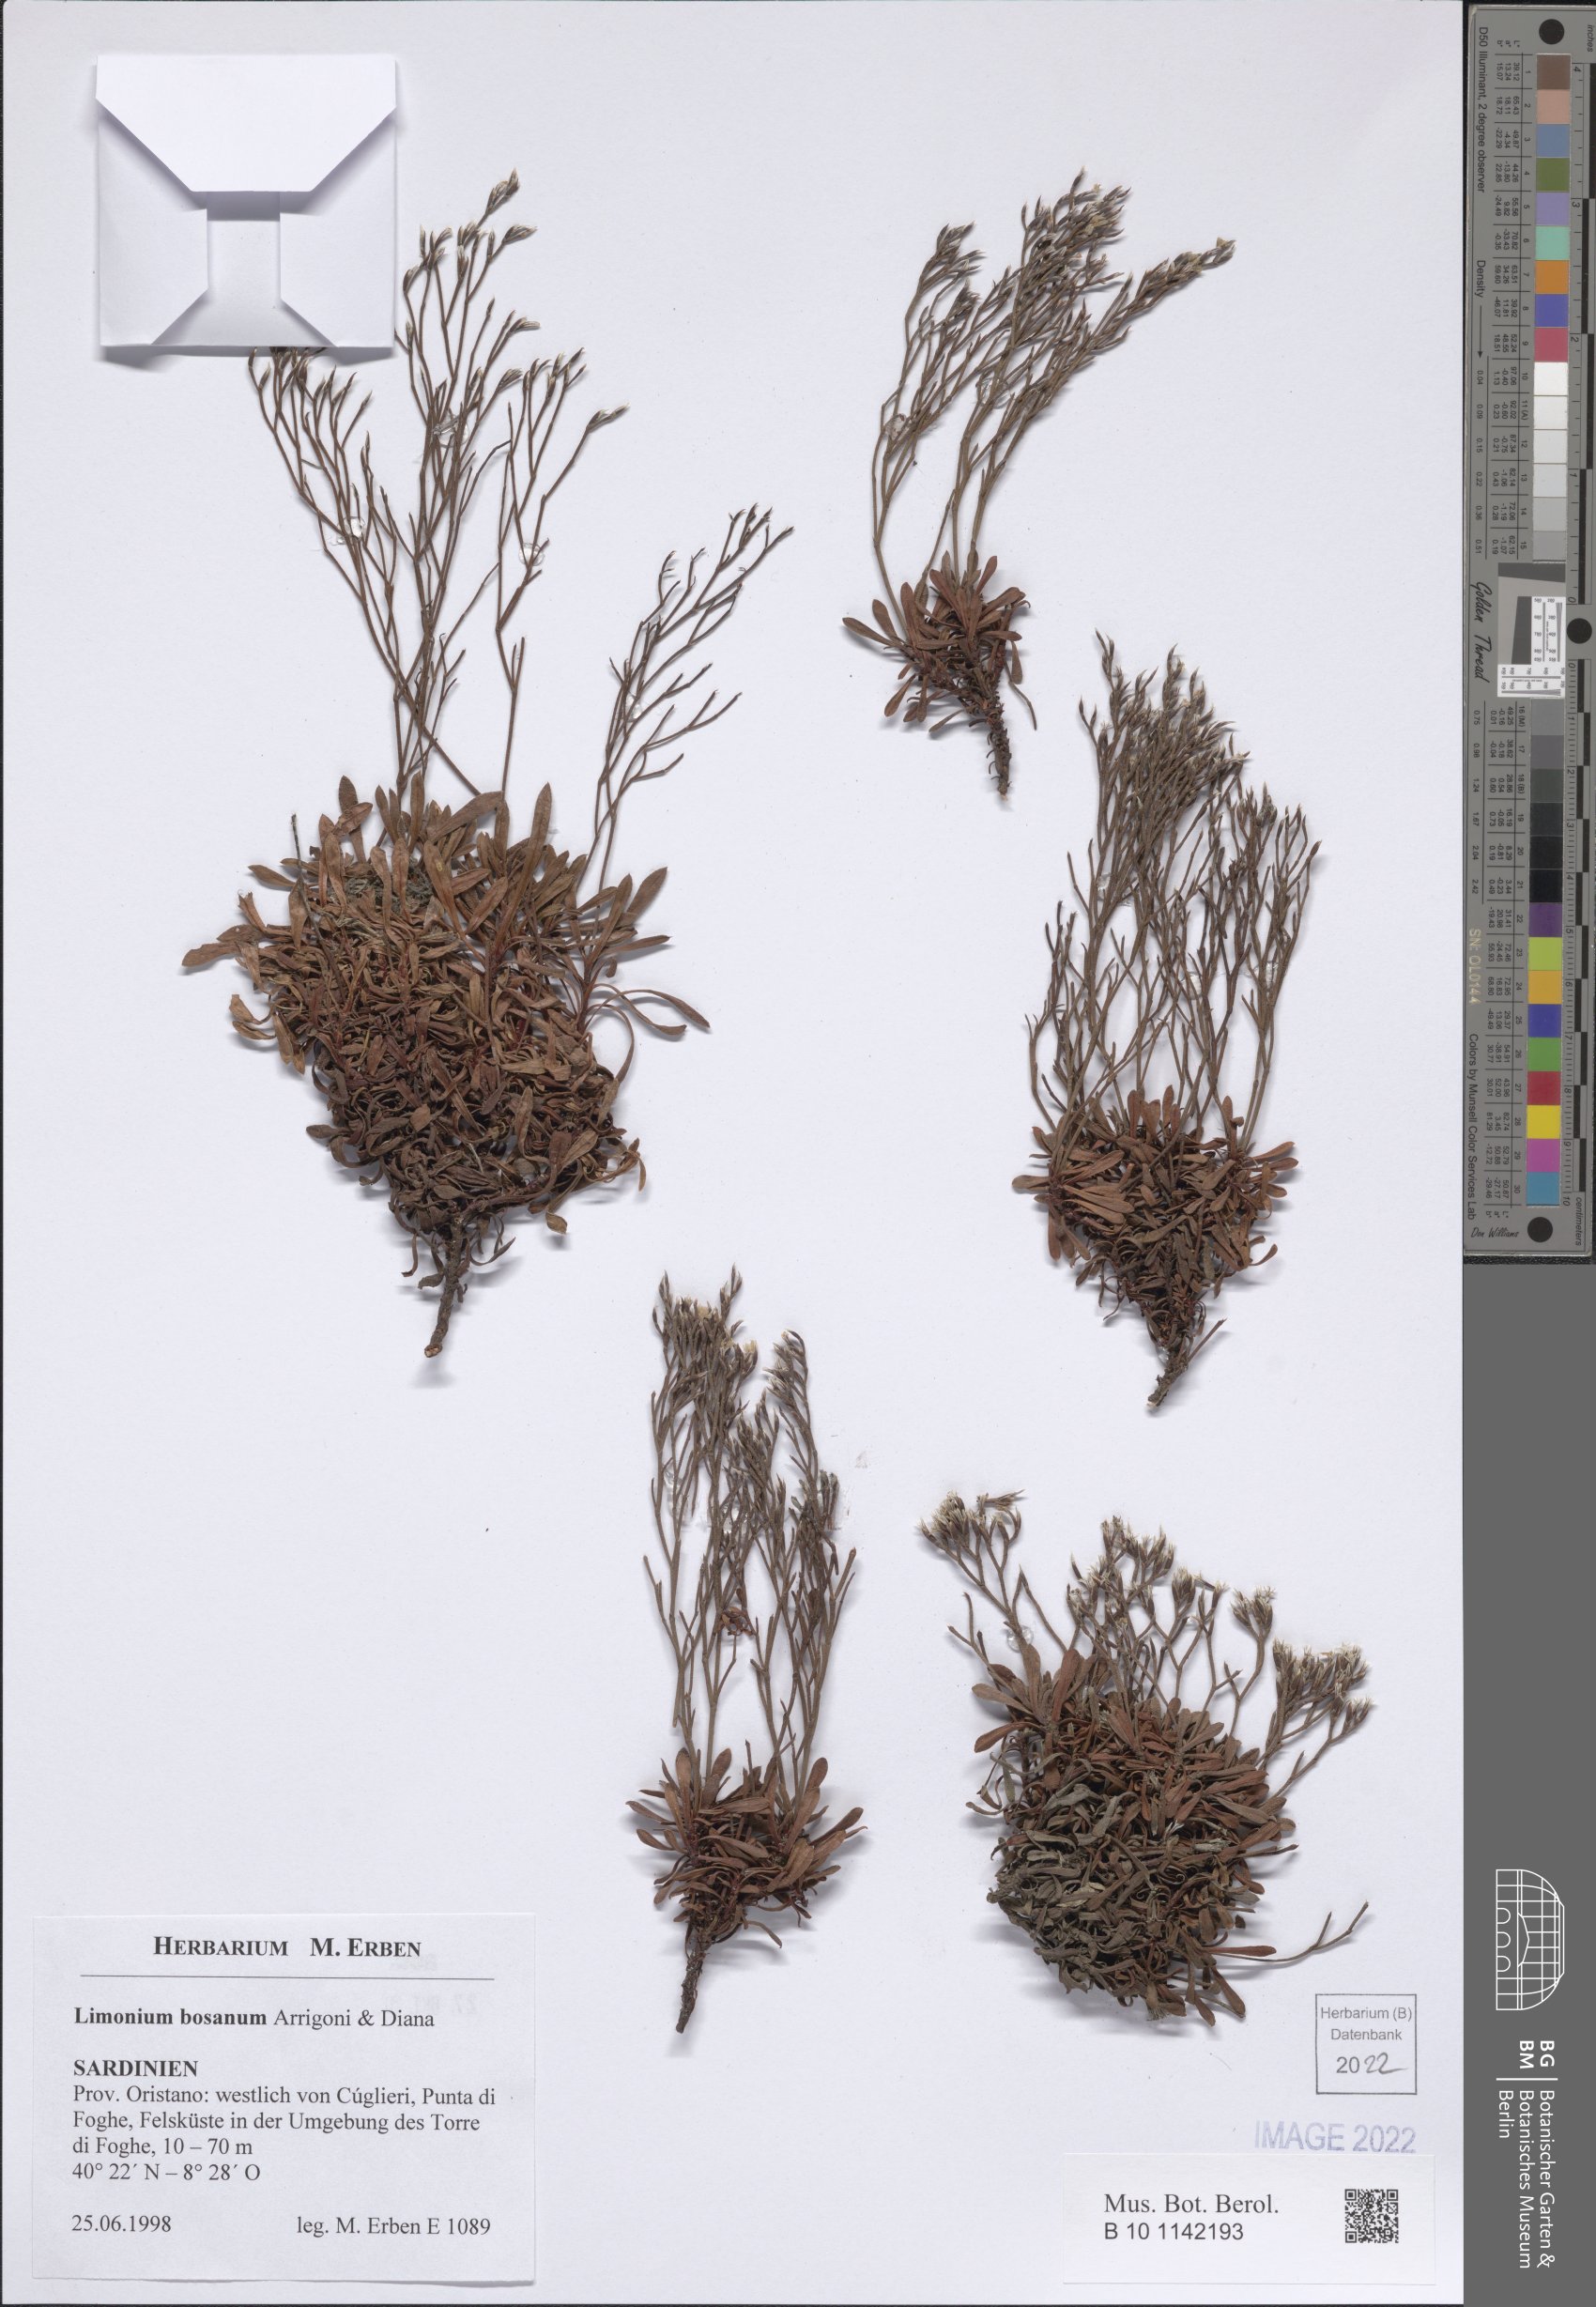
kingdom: Plantae
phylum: Tracheophyta
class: Magnoliopsida
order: Caryophyllales
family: Plumbaginaceae
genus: Limonium
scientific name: Limonium acutifolium
